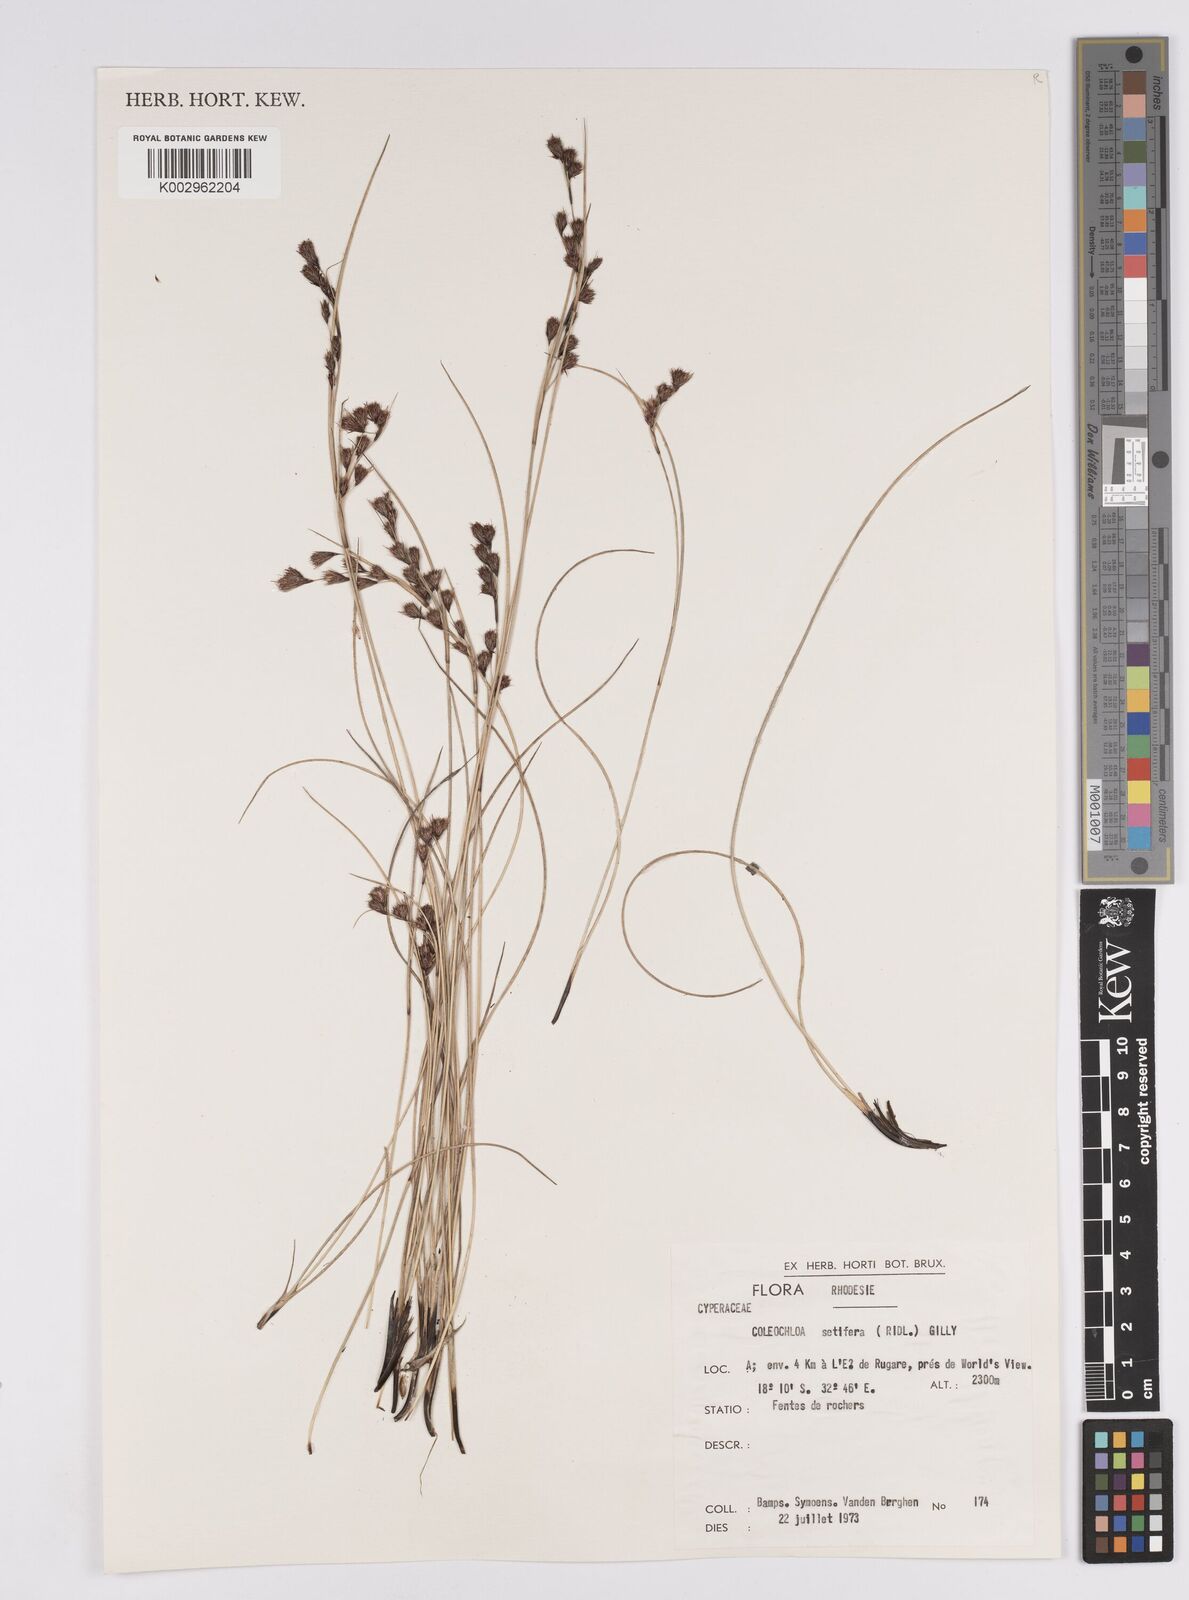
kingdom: Plantae
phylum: Tracheophyta
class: Liliopsida
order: Poales
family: Cyperaceae
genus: Coleochloa
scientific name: Coleochloa setifera
